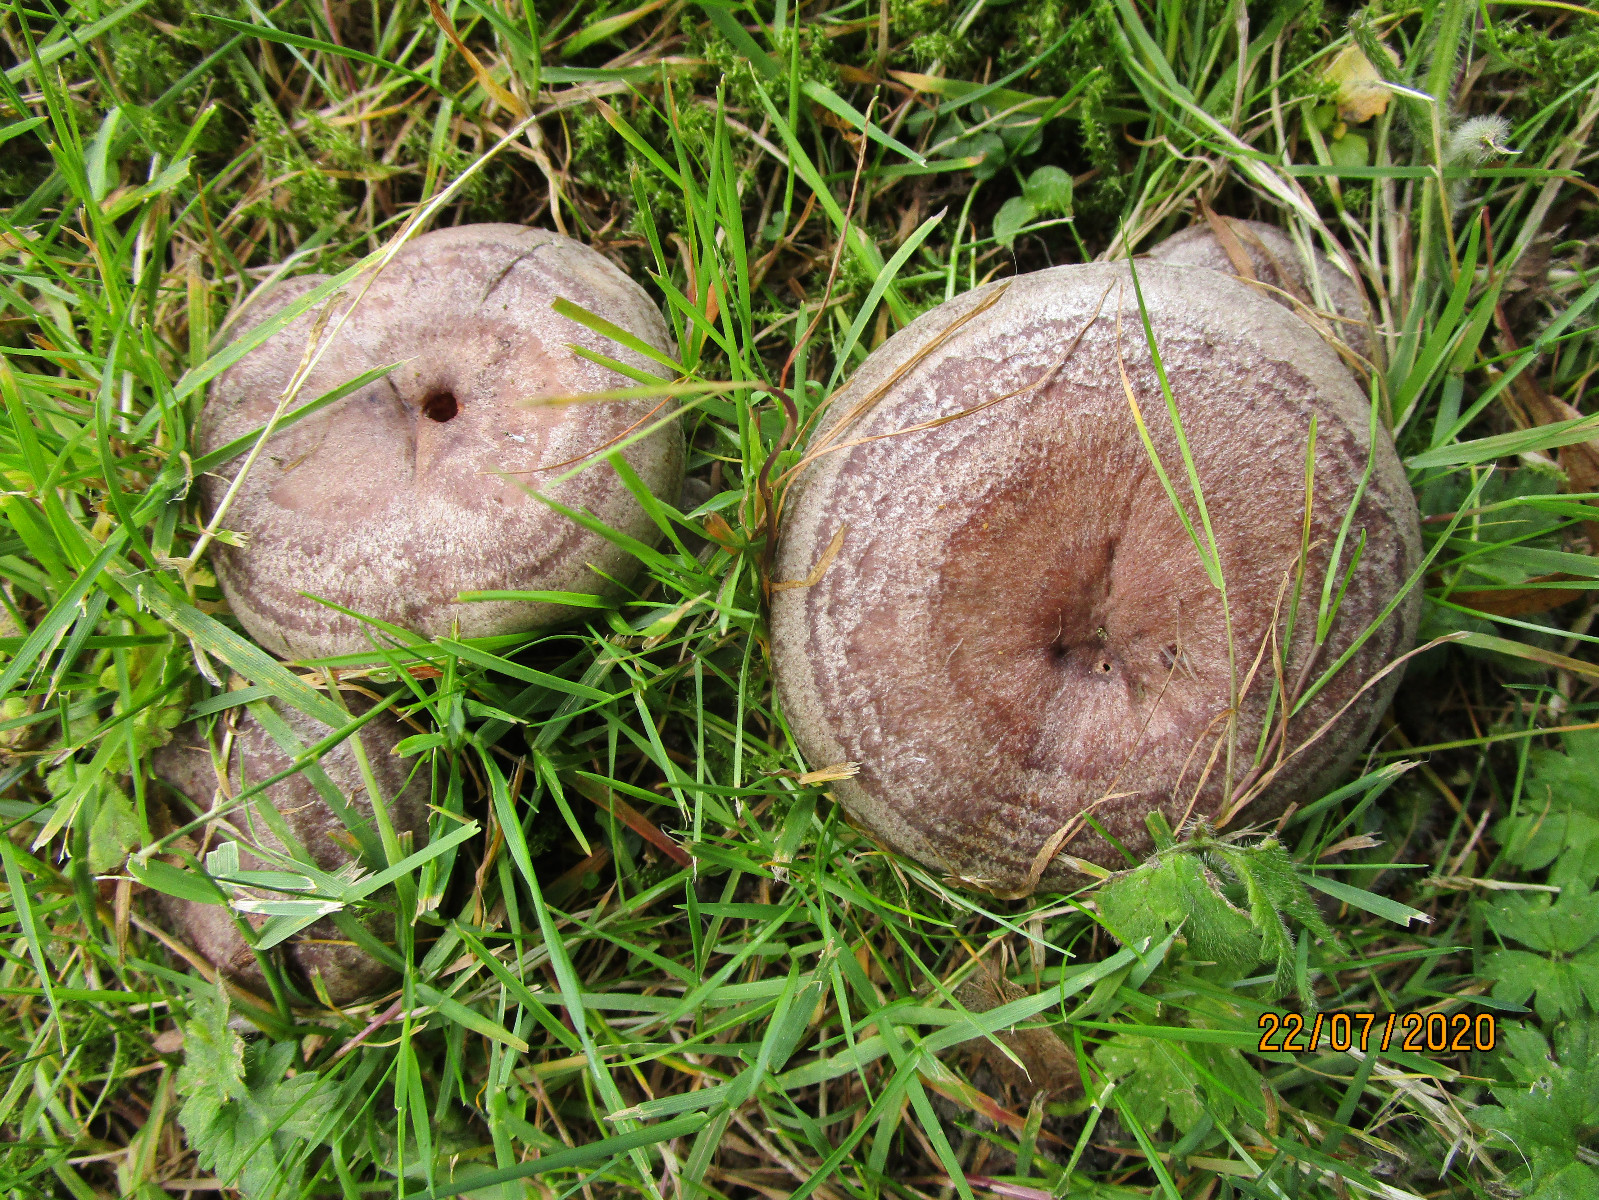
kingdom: Fungi
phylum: Basidiomycota
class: Agaricomycetes
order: Russulales
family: Russulaceae
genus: Lactarius
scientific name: Lactarius circellatus
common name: avnbøg-mælkehat
